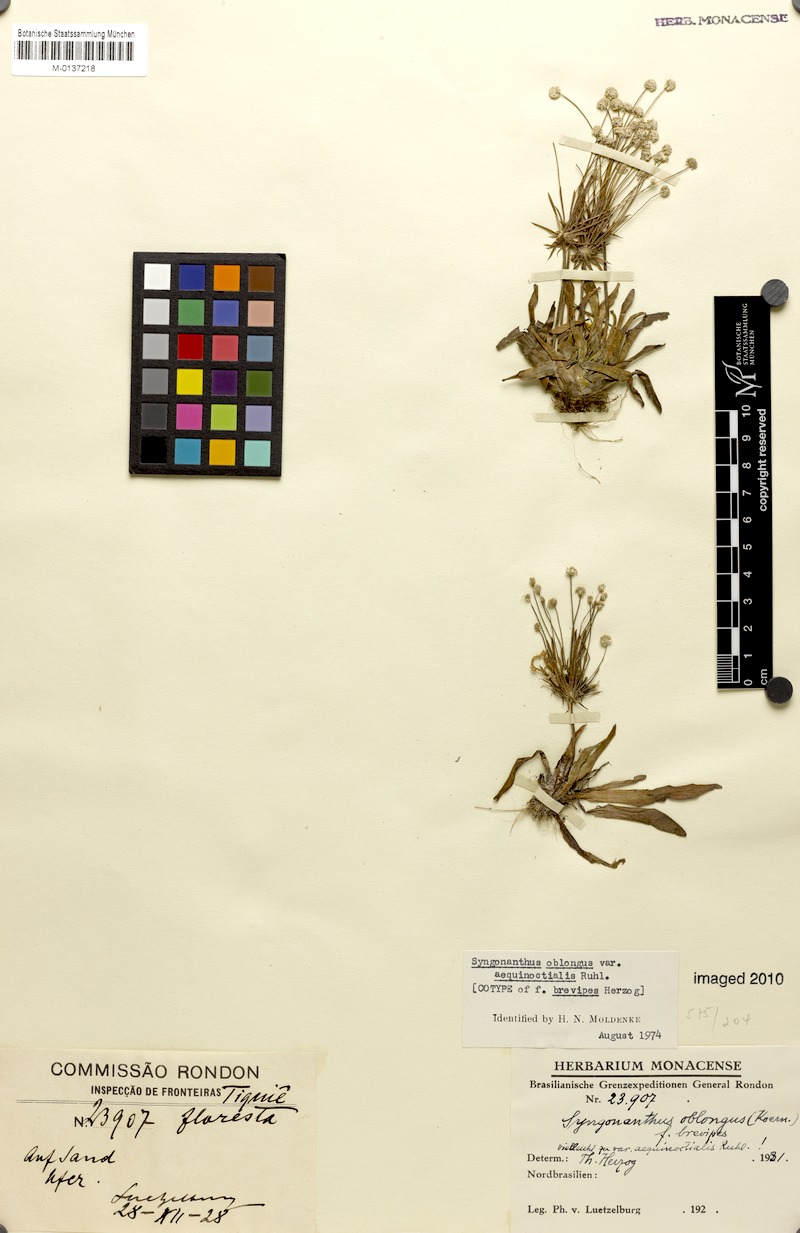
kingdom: Plantae
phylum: Tracheophyta
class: Liliopsida
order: Poales
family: Eriocaulaceae
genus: Syngonanthus
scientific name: Syngonanthus oblongus
